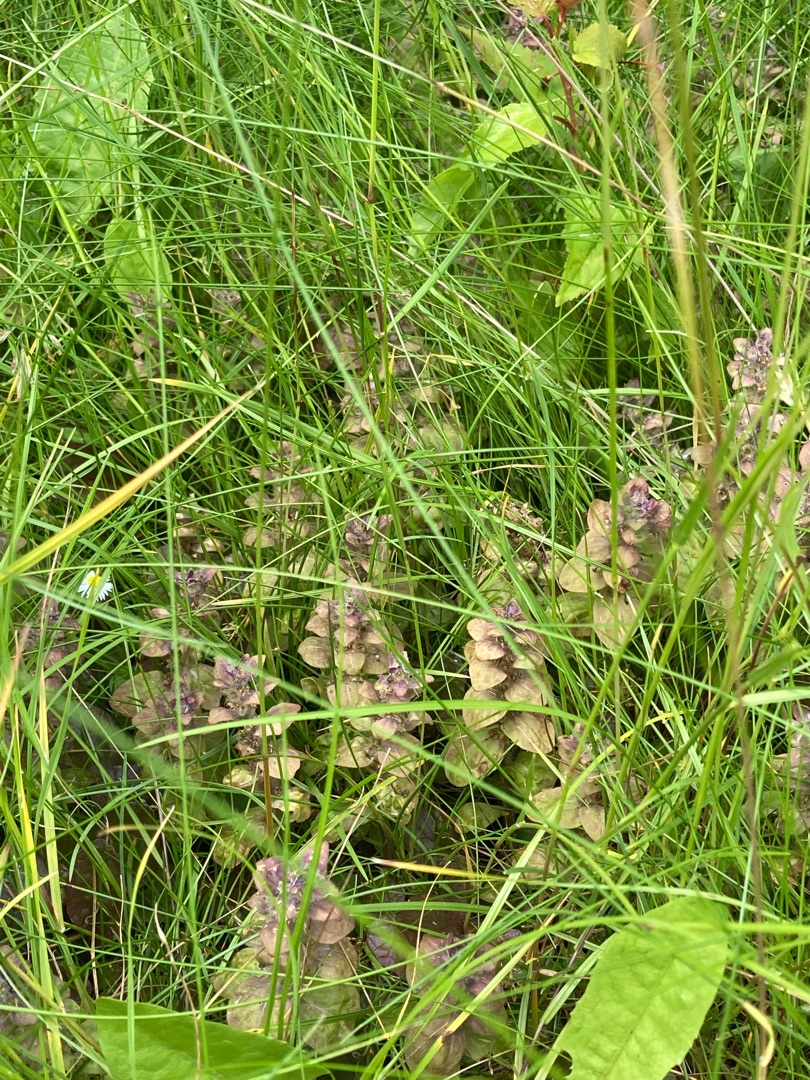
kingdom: Plantae
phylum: Tracheophyta
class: Magnoliopsida
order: Lamiales
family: Lamiaceae
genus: Ajuga
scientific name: Ajuga pyramidalis
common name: Pyramide-læbeløs
